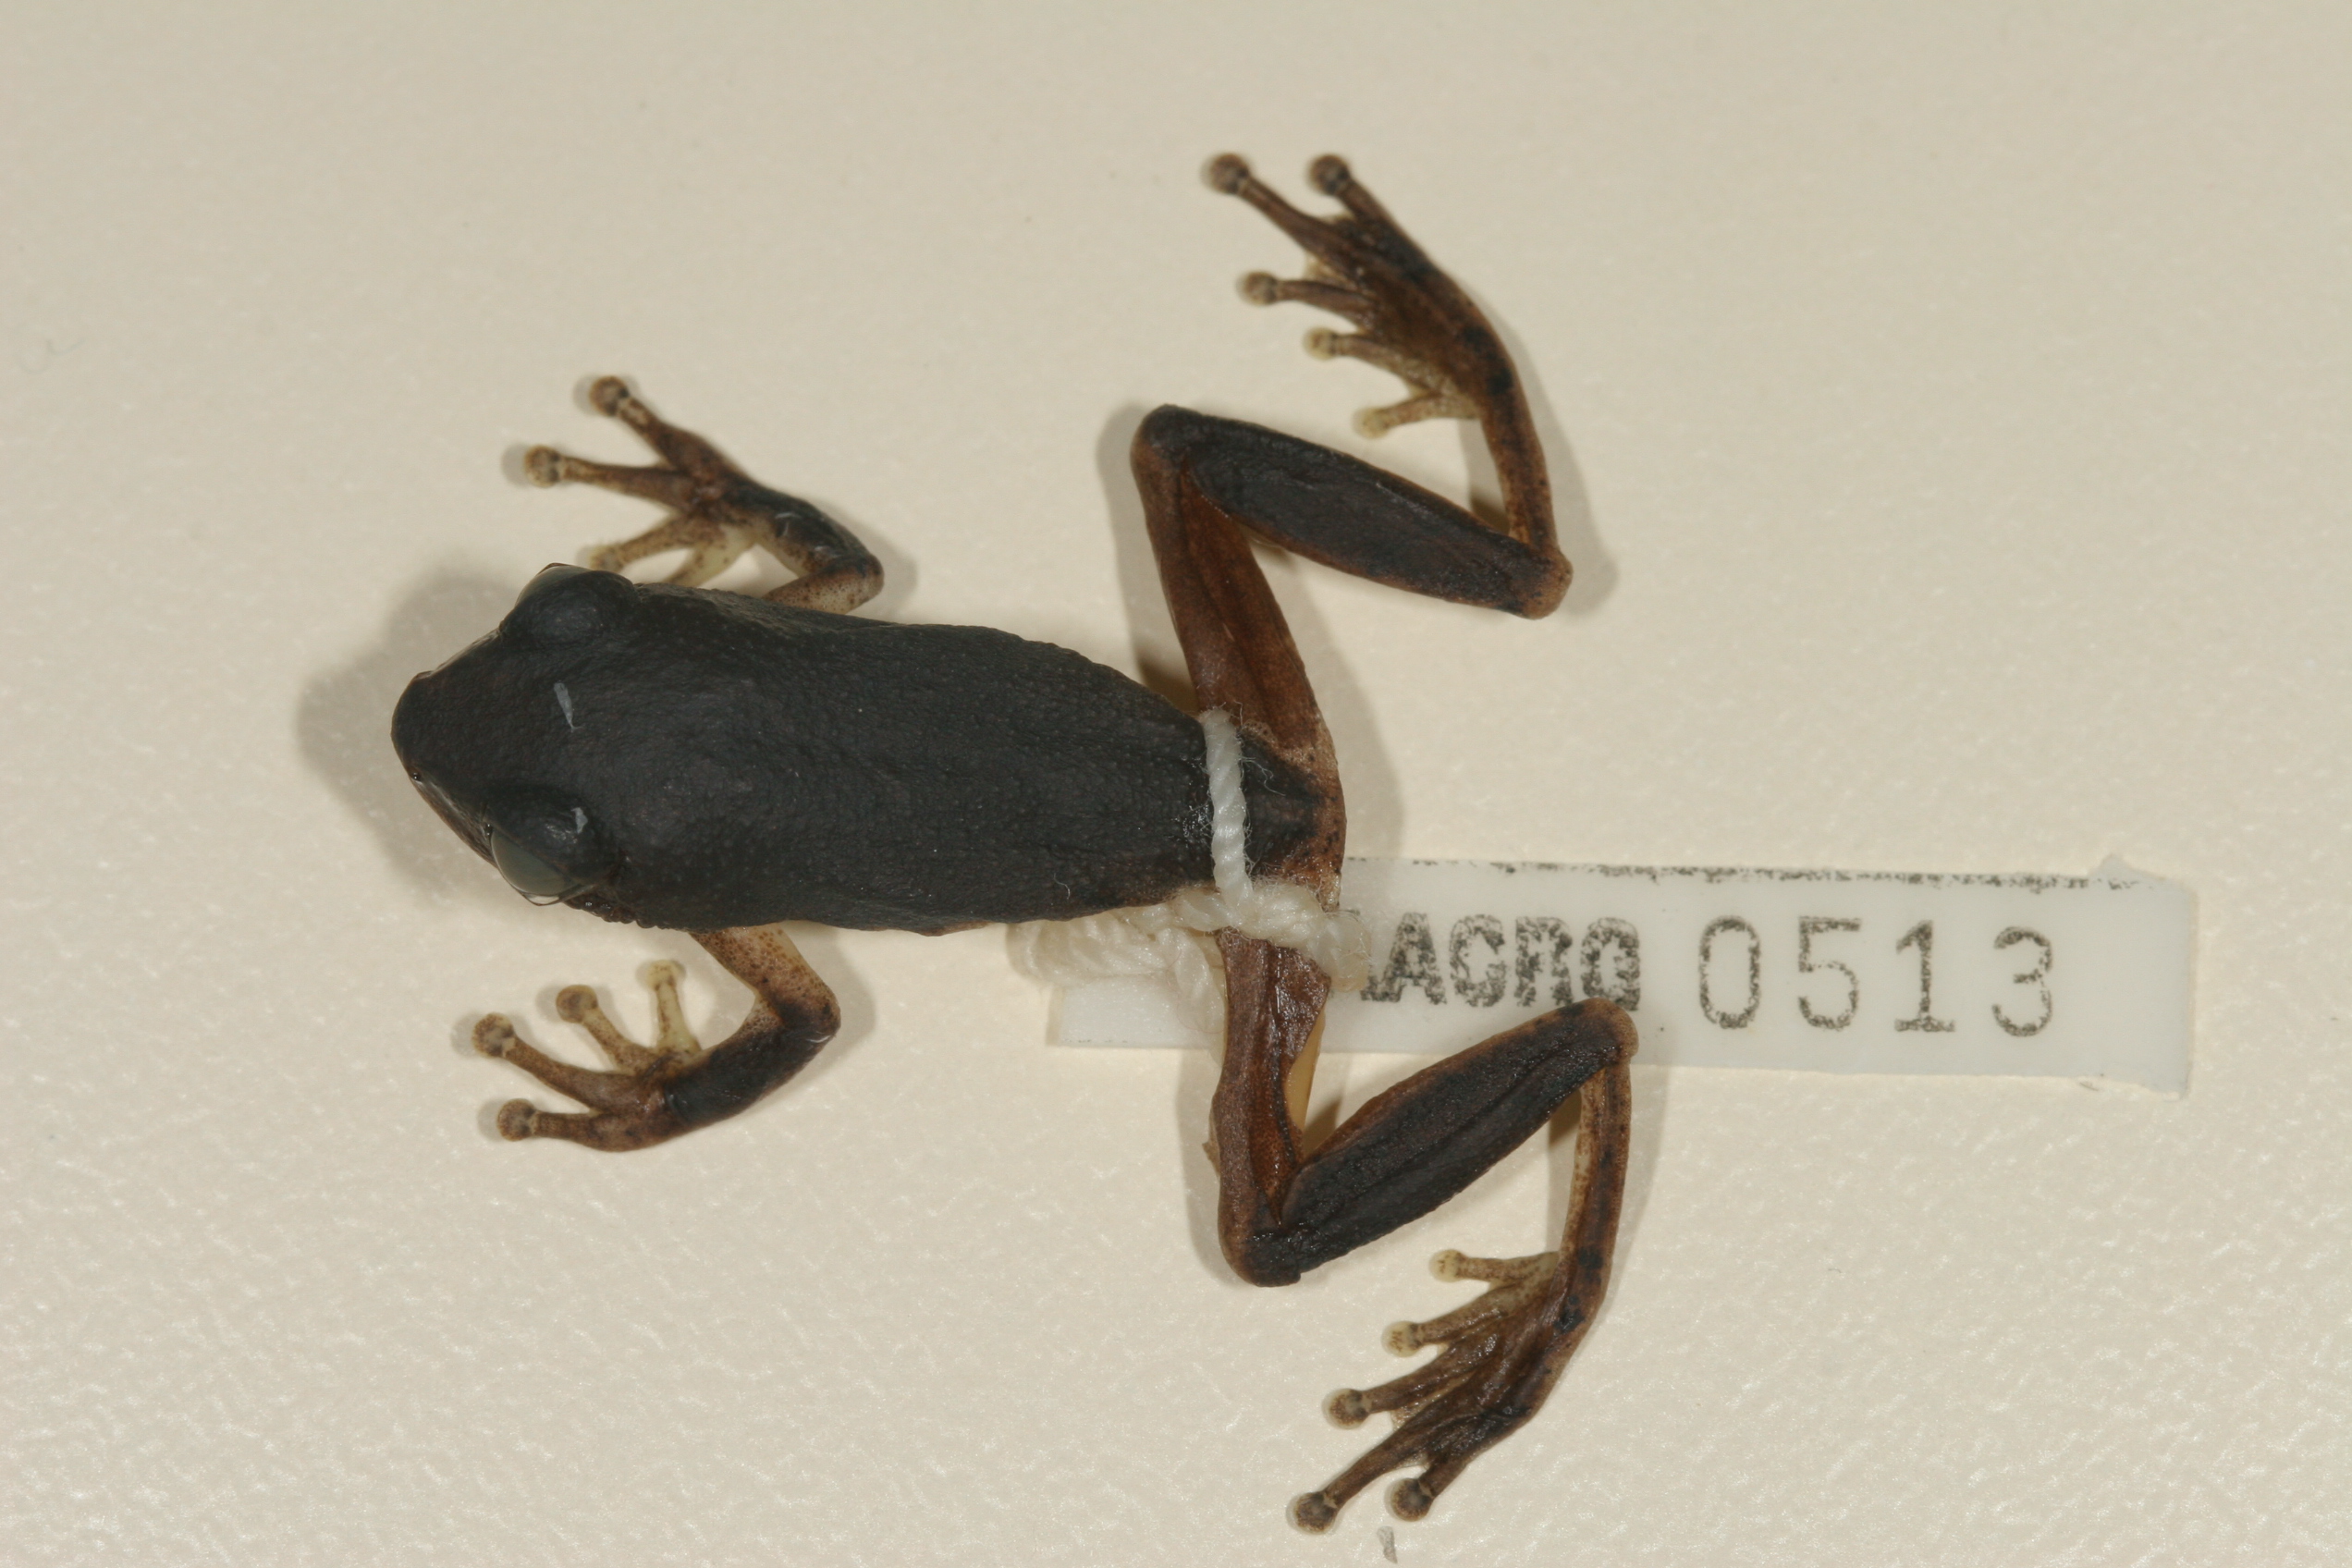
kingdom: Animalia
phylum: Chordata
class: Amphibia
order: Anura
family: Hyperoliidae
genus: Hyperolius
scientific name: Hyperolius tuberilinguis
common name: Tinker reed frog
